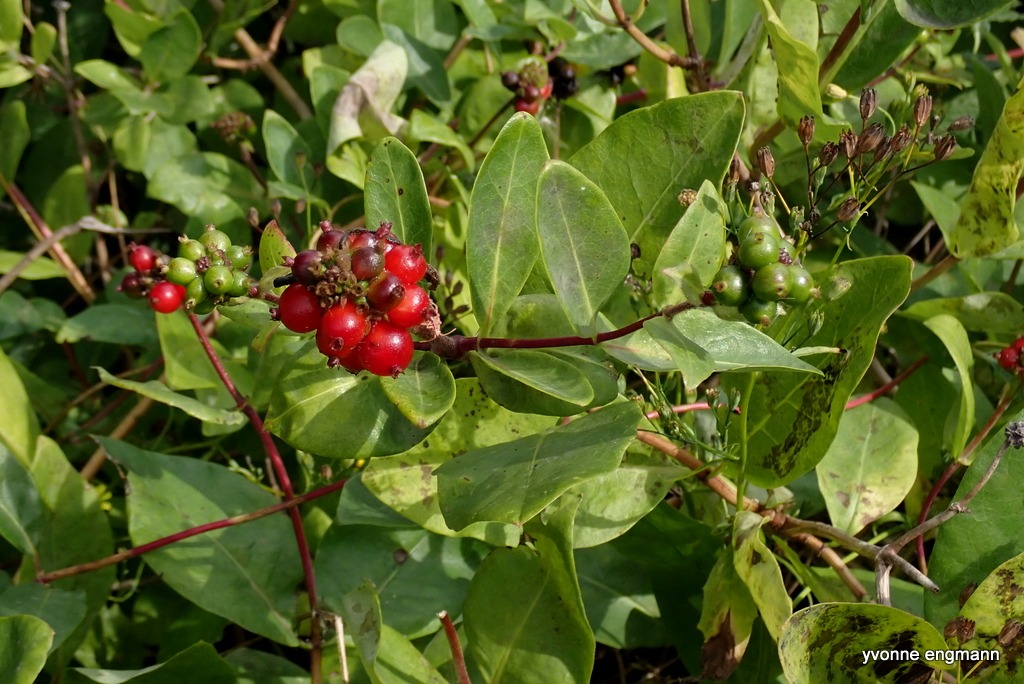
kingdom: Plantae
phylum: Tracheophyta
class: Magnoliopsida
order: Dipsacales
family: Caprifoliaceae
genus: Lonicera
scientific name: Lonicera periclymenum
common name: Almindelig gedeblad
